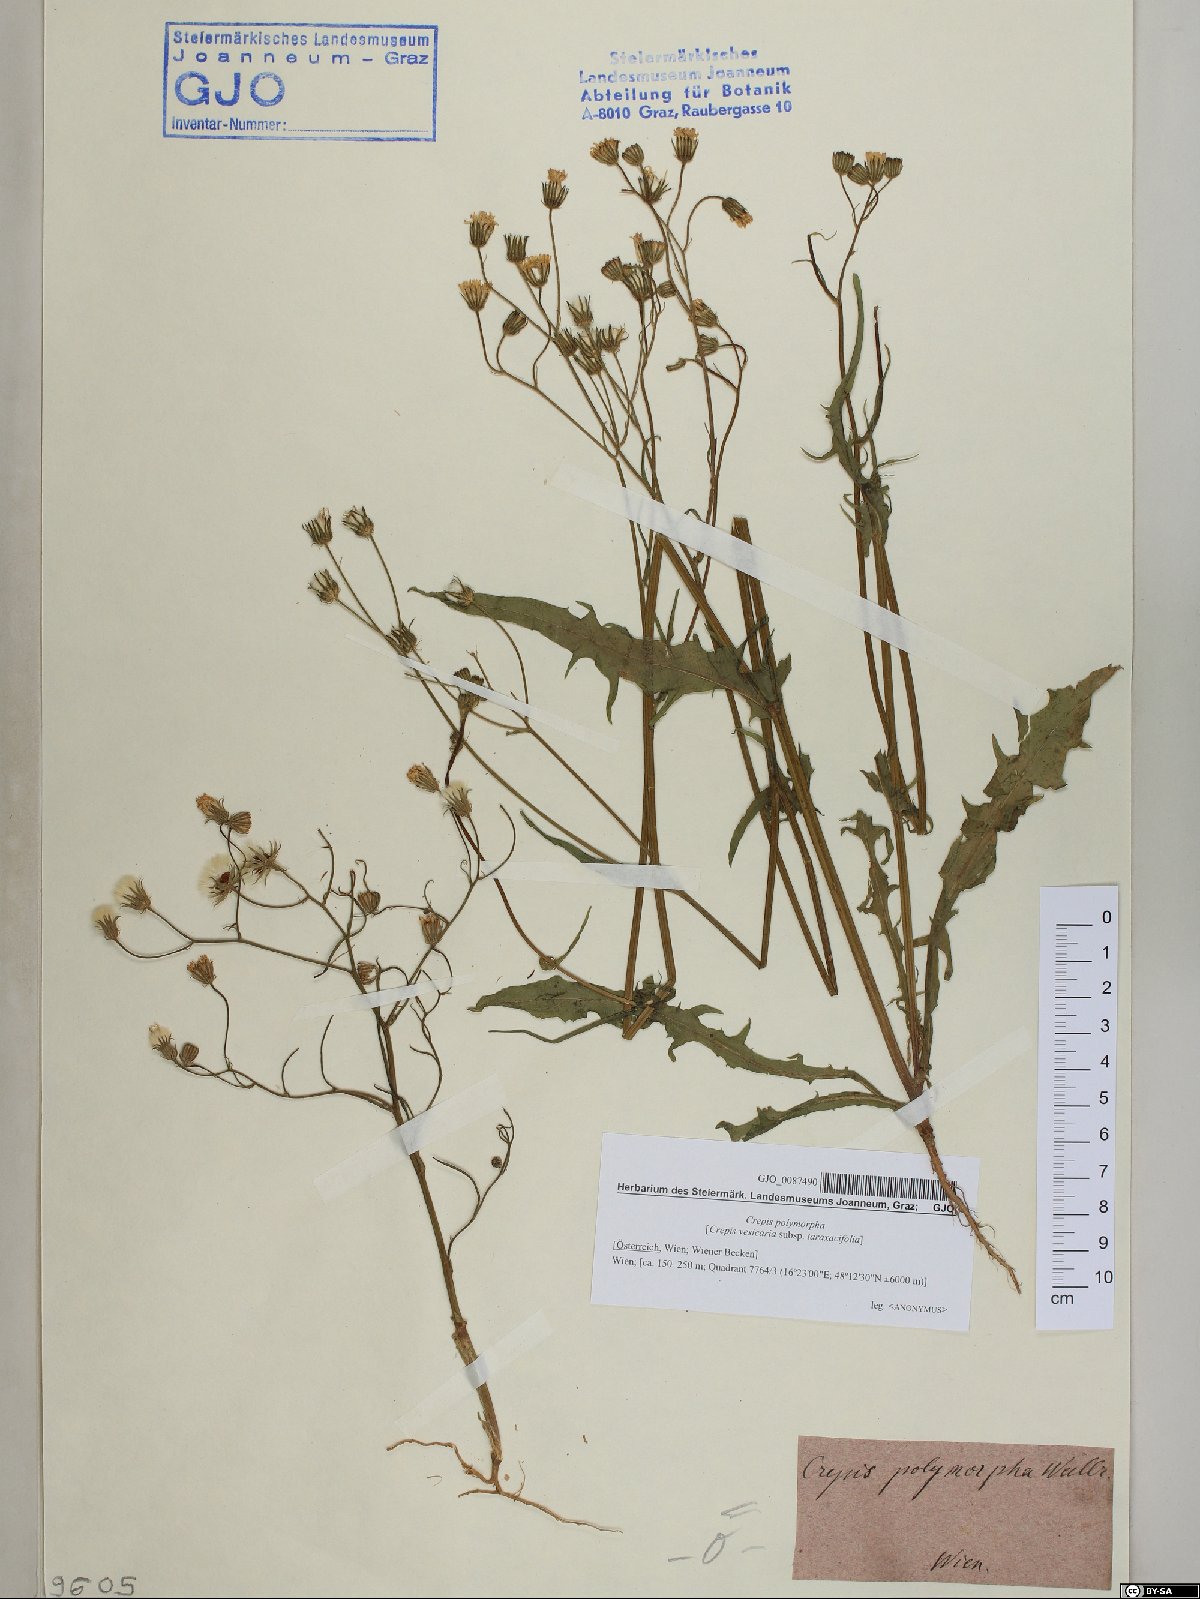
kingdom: Plantae
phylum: Tracheophyta
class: Magnoliopsida
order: Asterales
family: Asteraceae
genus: Crepis
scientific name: Crepis capillaris
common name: Smooth hawksbeard
